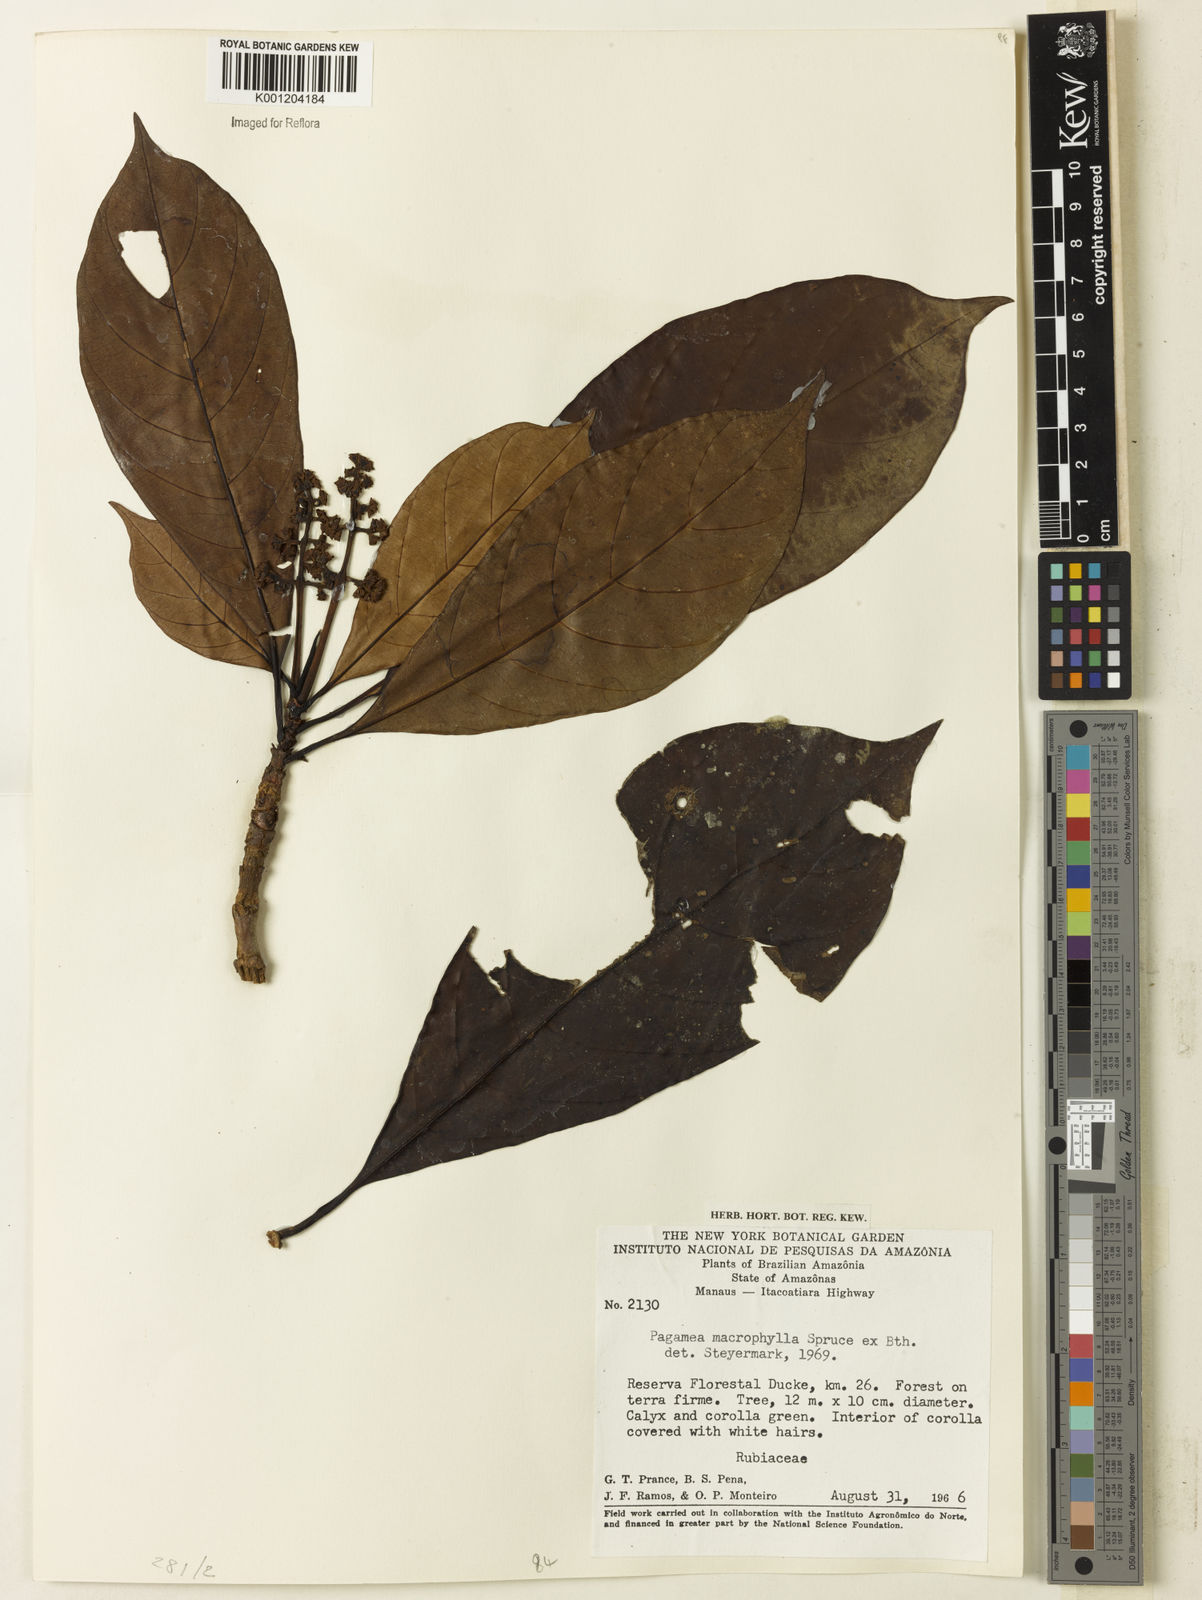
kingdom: Plantae
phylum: Tracheophyta
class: Magnoliopsida
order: Gentianales
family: Rubiaceae
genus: Pagamea
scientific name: Pagamea macrophylla
